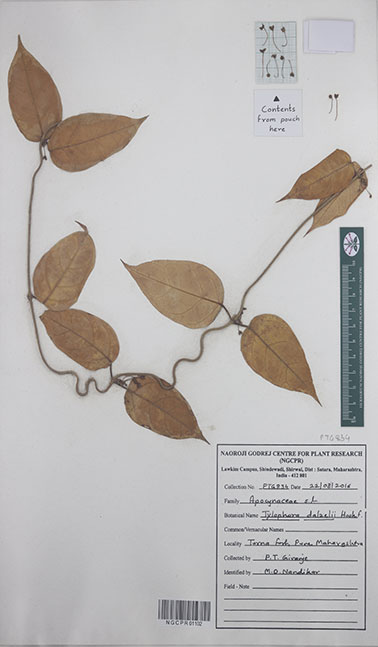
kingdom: Plantae
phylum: Tracheophyta
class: Magnoliopsida
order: Gentianales
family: Apocynaceae
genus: Vincetoxicum
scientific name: Vincetoxicum dalzellii
